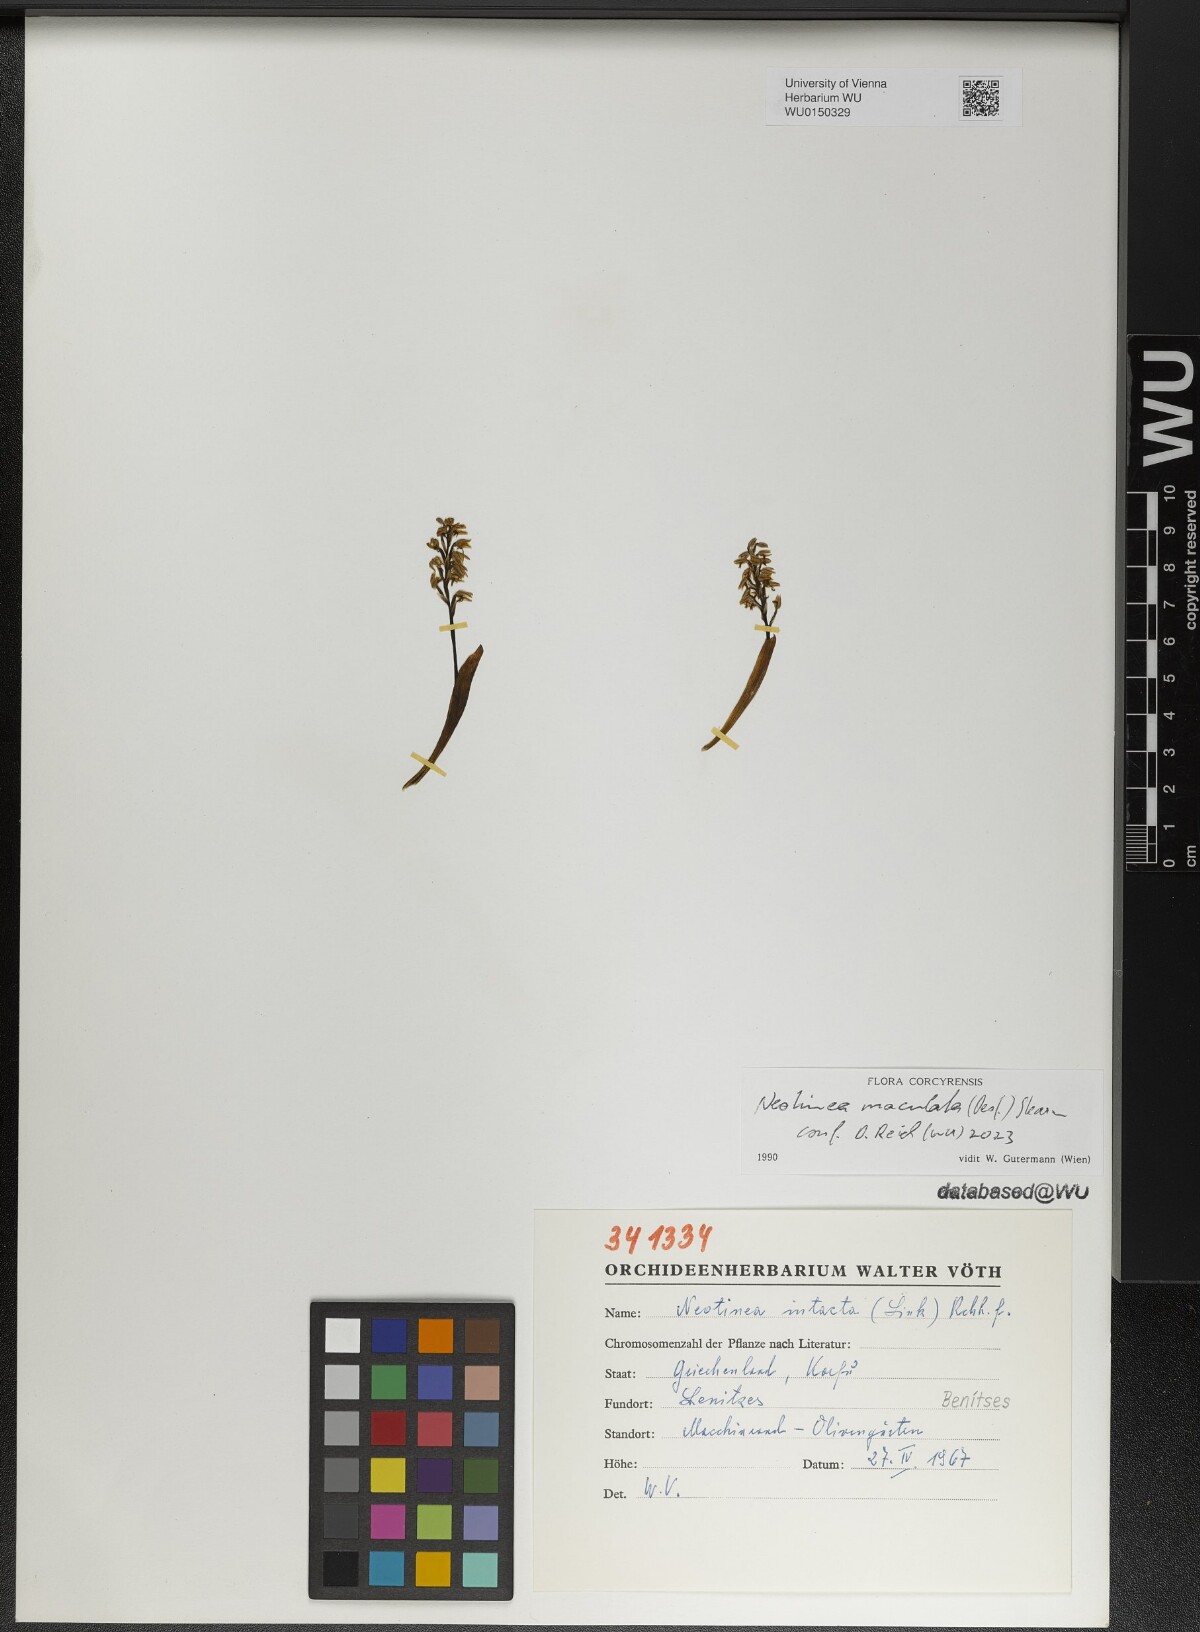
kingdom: Plantae
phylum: Tracheophyta
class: Liliopsida
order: Asparagales
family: Orchidaceae
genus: Neotinea
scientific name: Neotinea maculata
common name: Dense-flowered orchid
